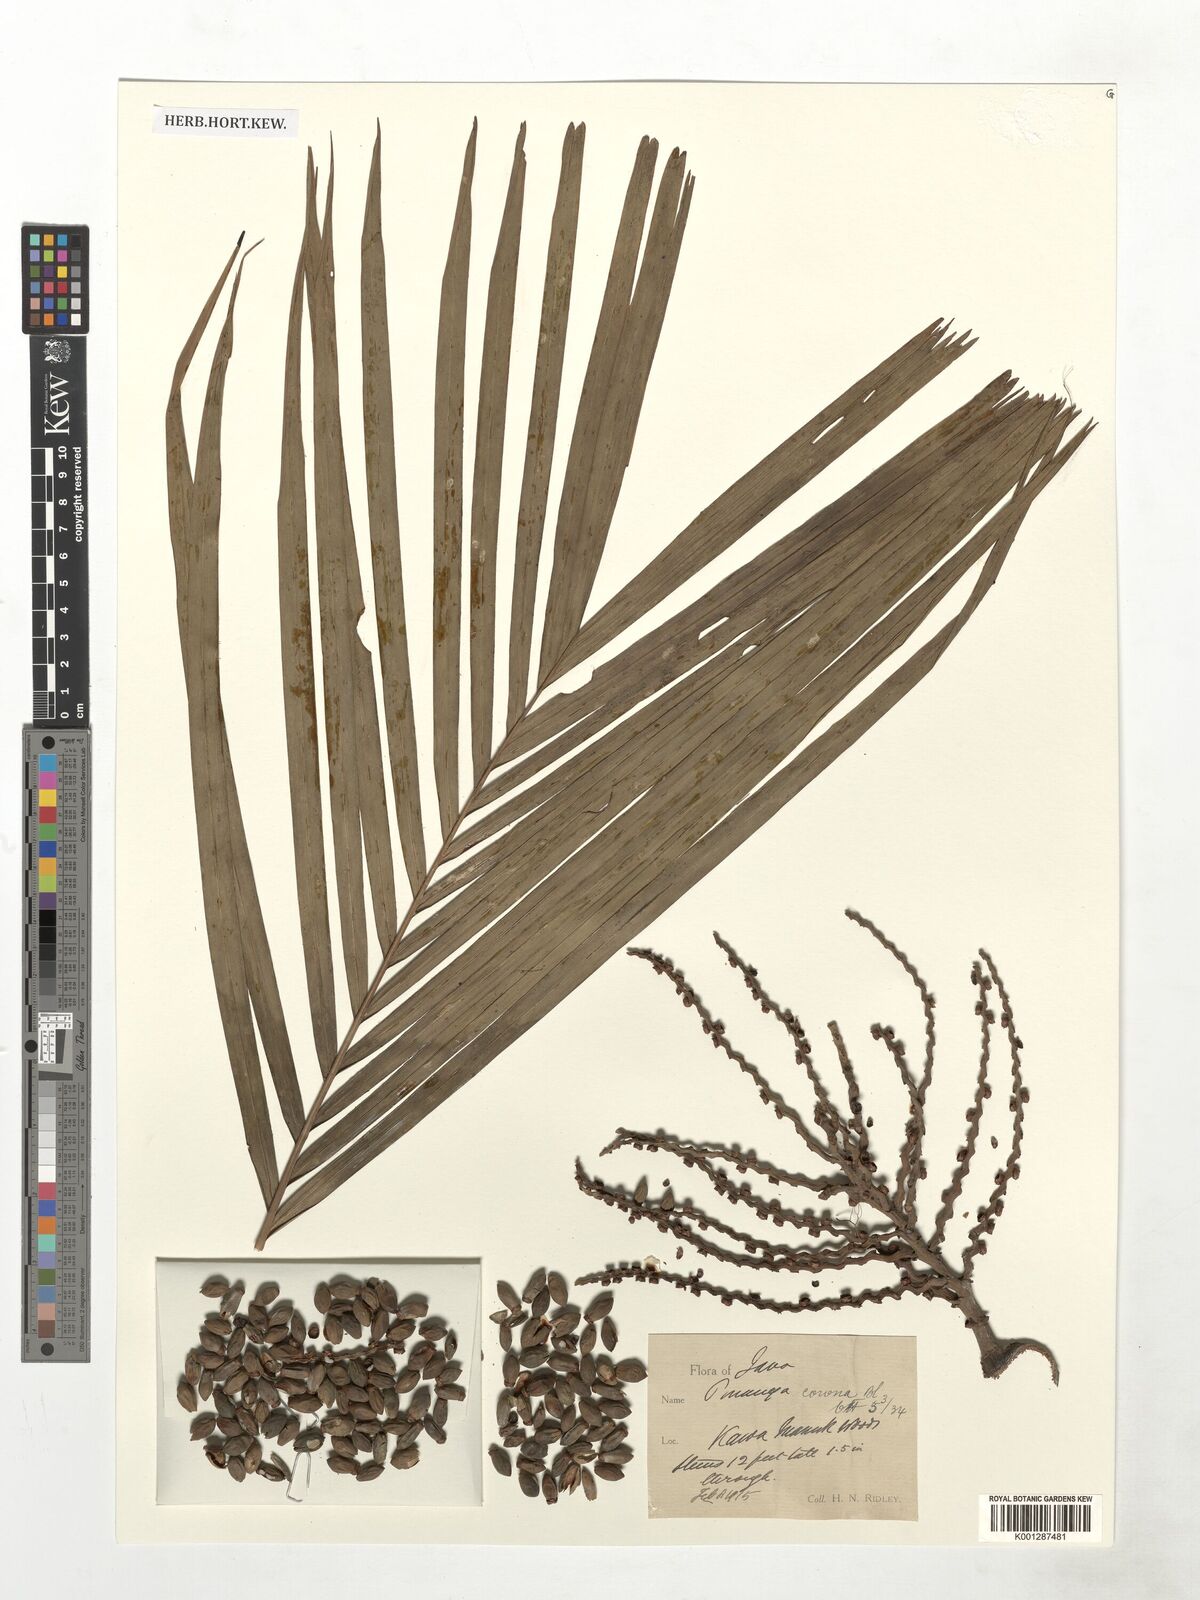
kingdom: Plantae
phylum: Tracheophyta
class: Liliopsida
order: Arecales
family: Arecaceae
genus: Pinanga
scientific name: Pinanga coronata
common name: Ivory cane palm
